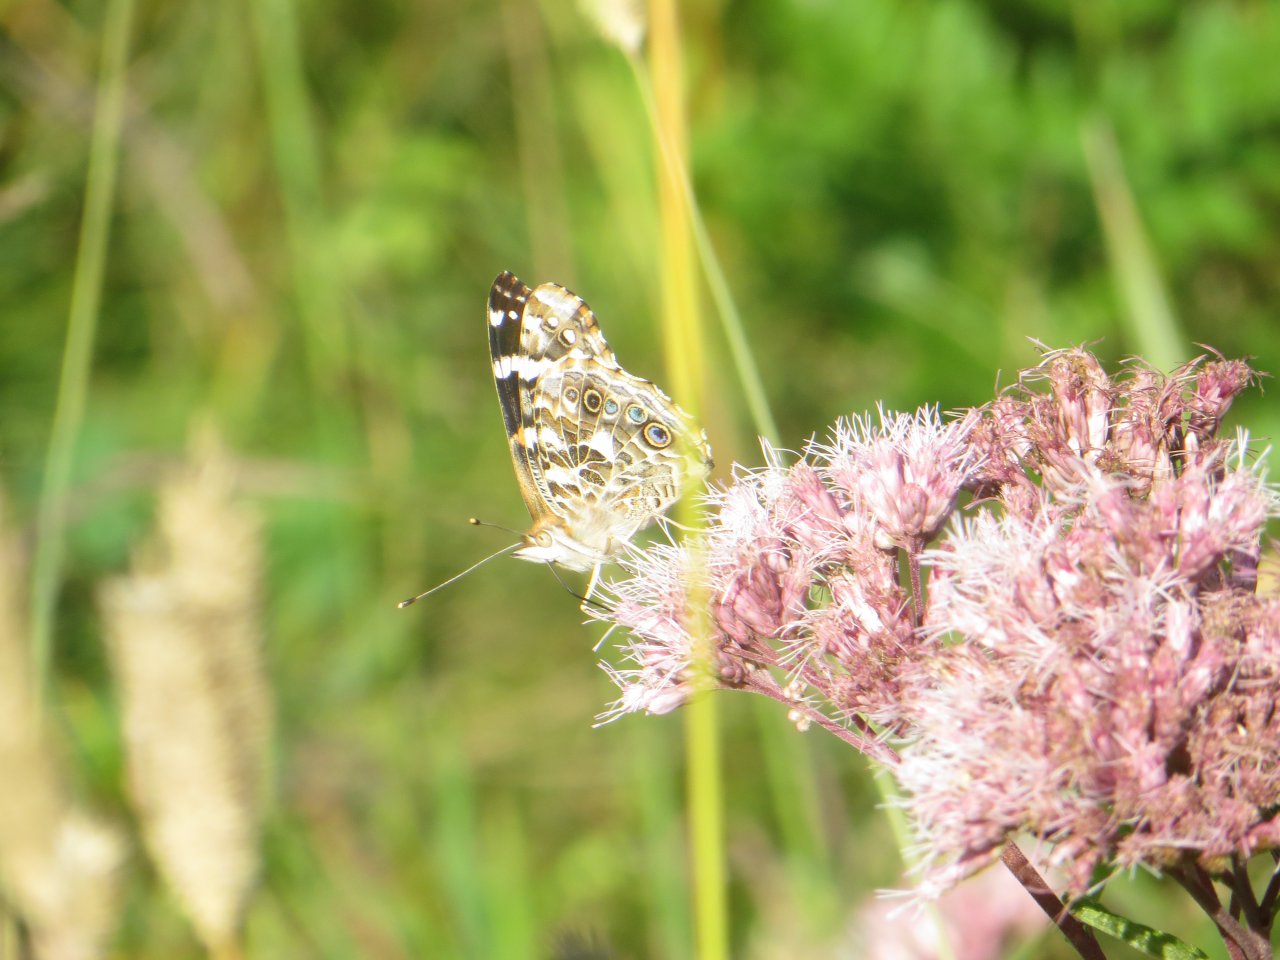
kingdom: Animalia
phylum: Arthropoda
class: Insecta
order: Lepidoptera
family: Nymphalidae
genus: Vanessa
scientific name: Vanessa cardui
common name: Painted Lady
